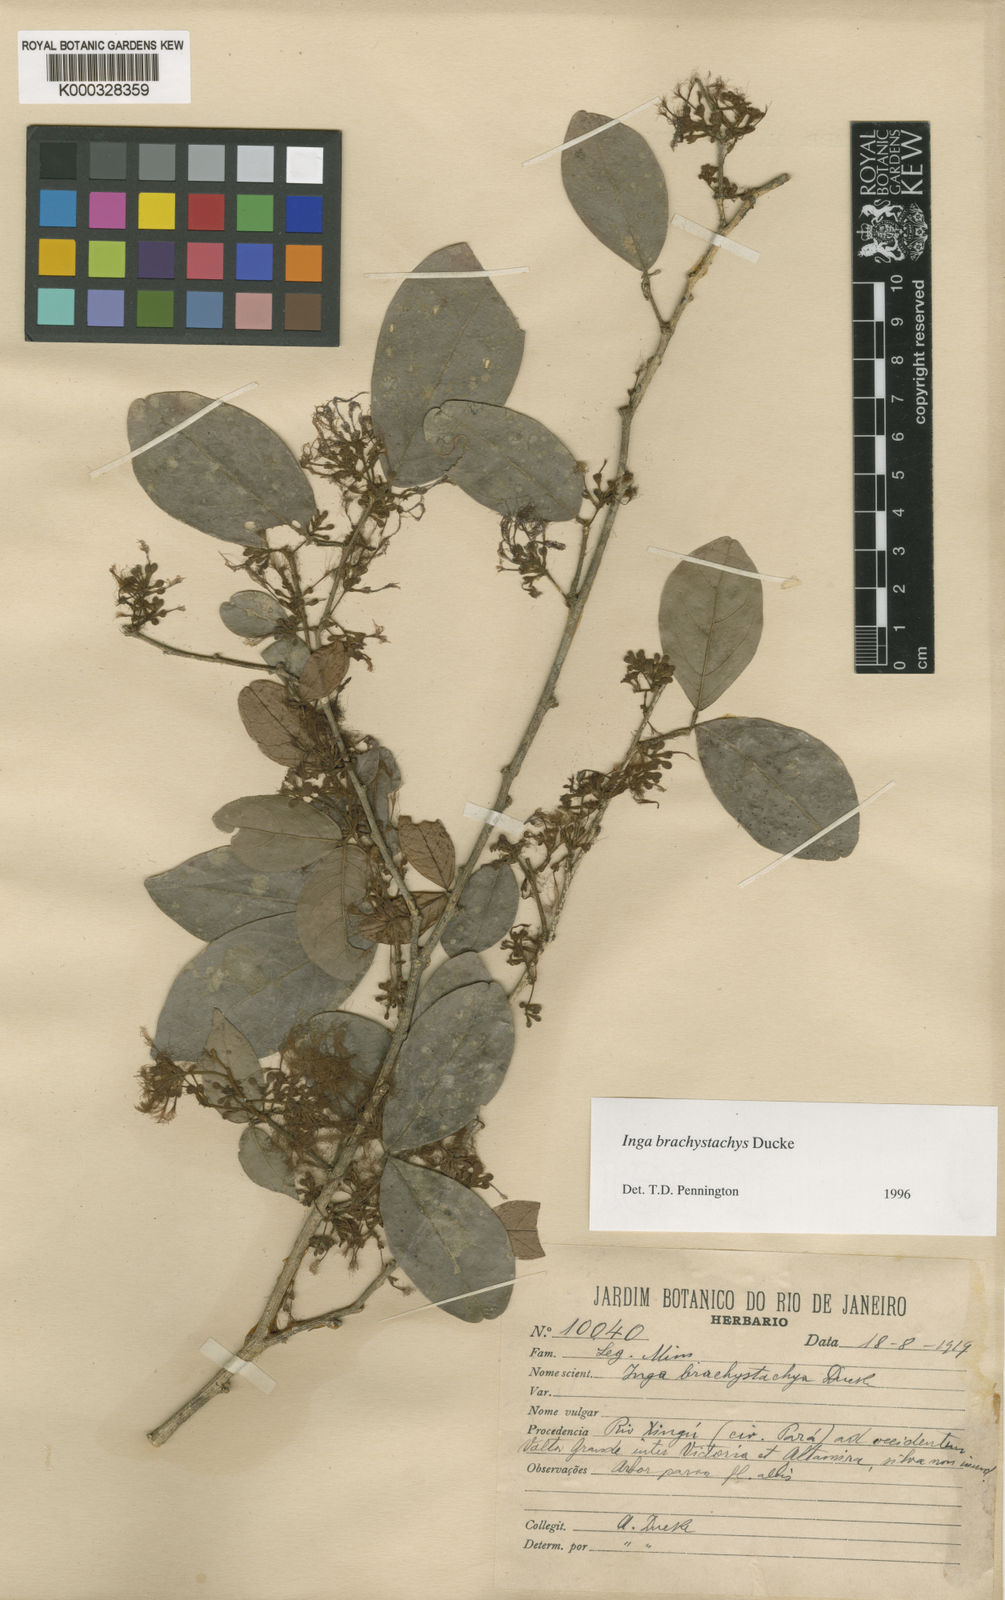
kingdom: Plantae
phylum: Tracheophyta
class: Magnoliopsida
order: Fabales
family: Fabaceae
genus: Inga
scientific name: Inga brachystachys
